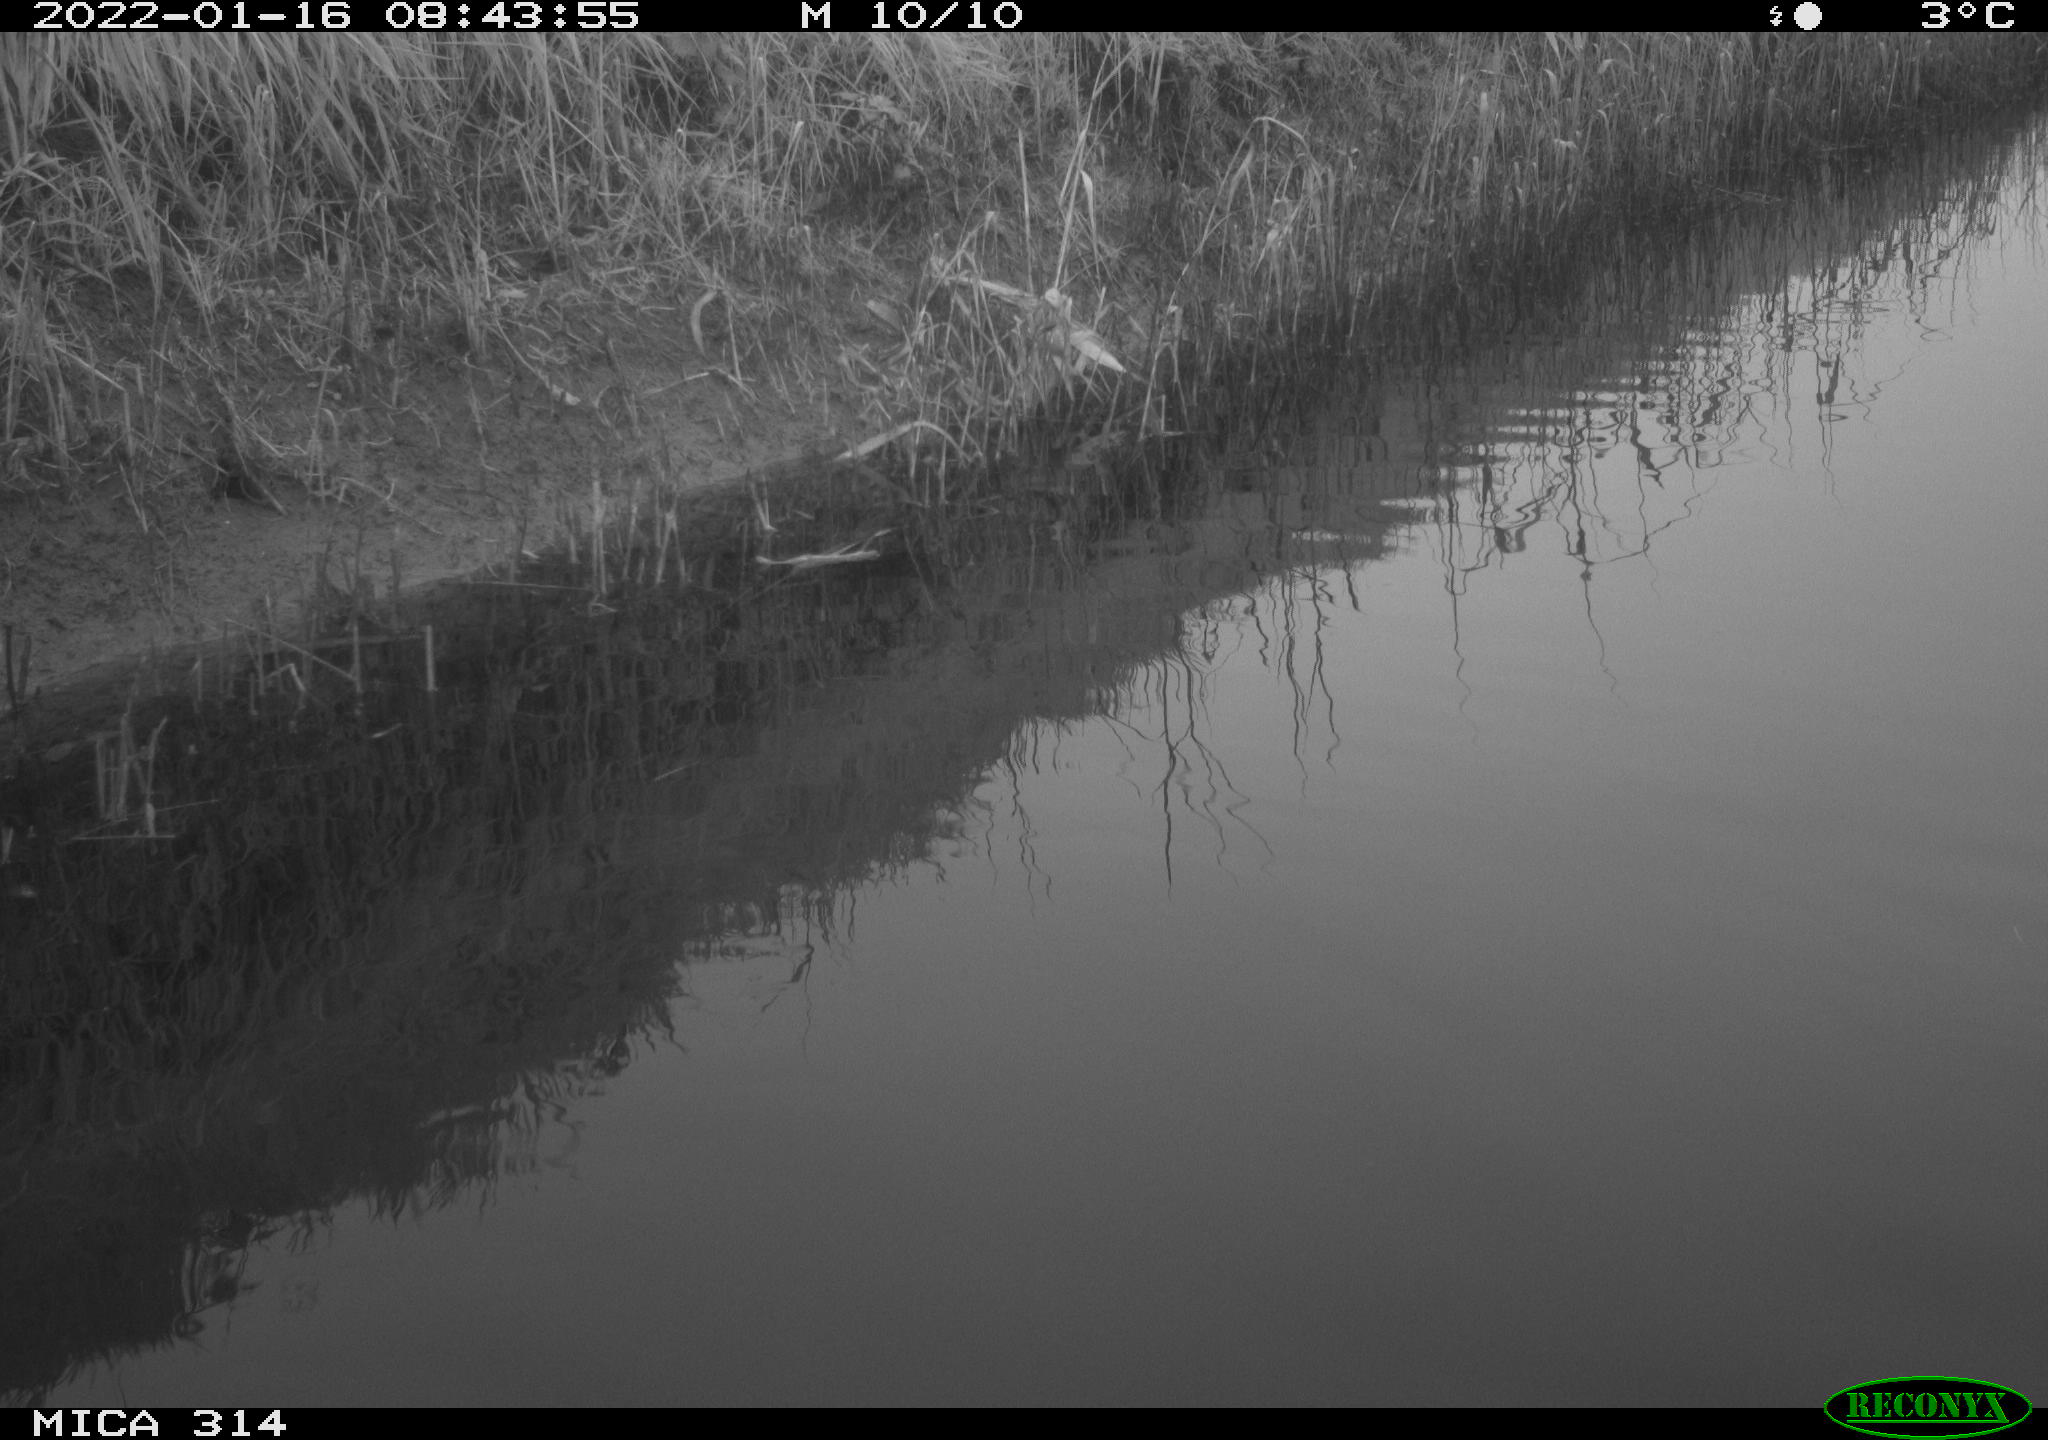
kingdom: Animalia
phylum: Chordata
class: Aves
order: Gruiformes
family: Rallidae
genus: Gallinula
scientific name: Gallinula chloropus
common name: Common moorhen
